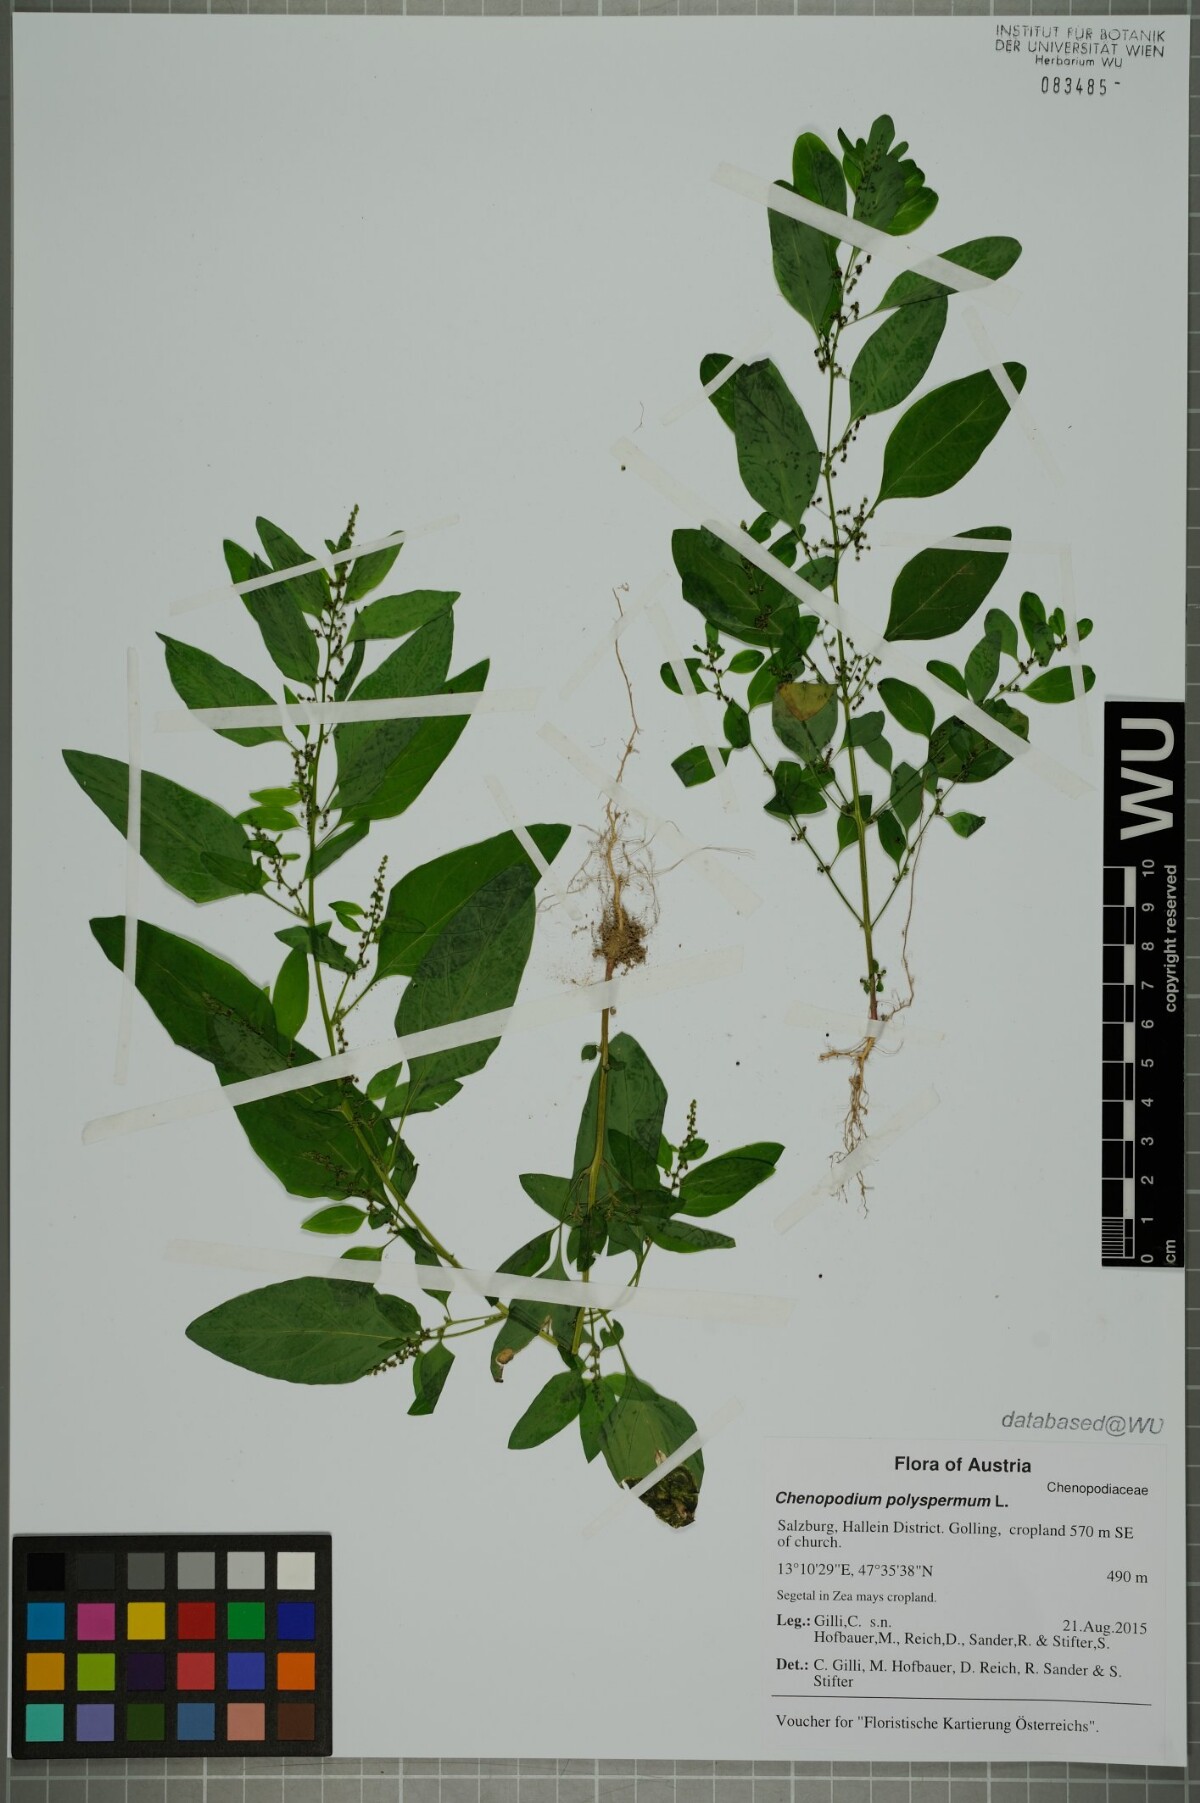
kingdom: Plantae
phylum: Tracheophyta
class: Magnoliopsida
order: Caryophyllales
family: Amaranthaceae
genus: Lipandra
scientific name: Lipandra polysperma
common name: Many-seed goosefoot
